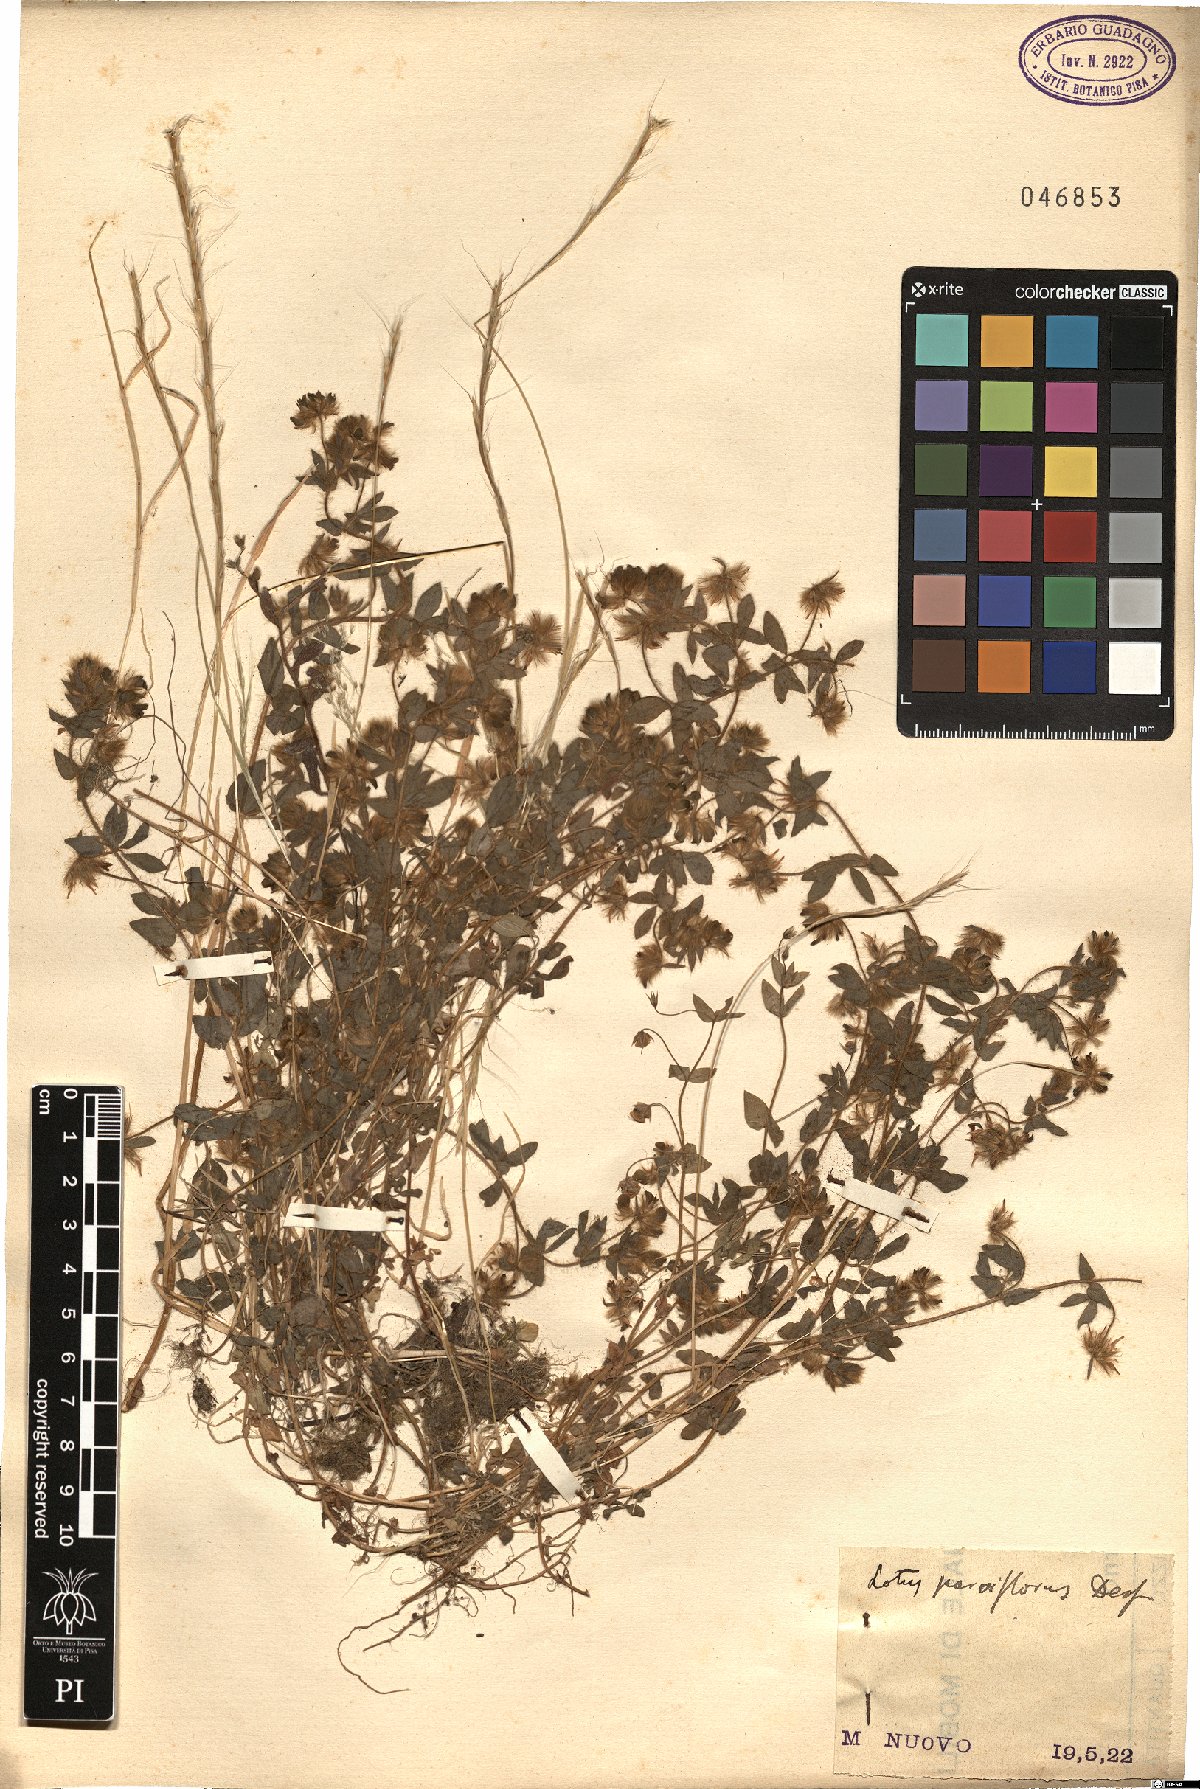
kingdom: Plantae
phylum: Tracheophyta
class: Magnoliopsida
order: Fabales
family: Fabaceae
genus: Lotus
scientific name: Lotus parviflorus
